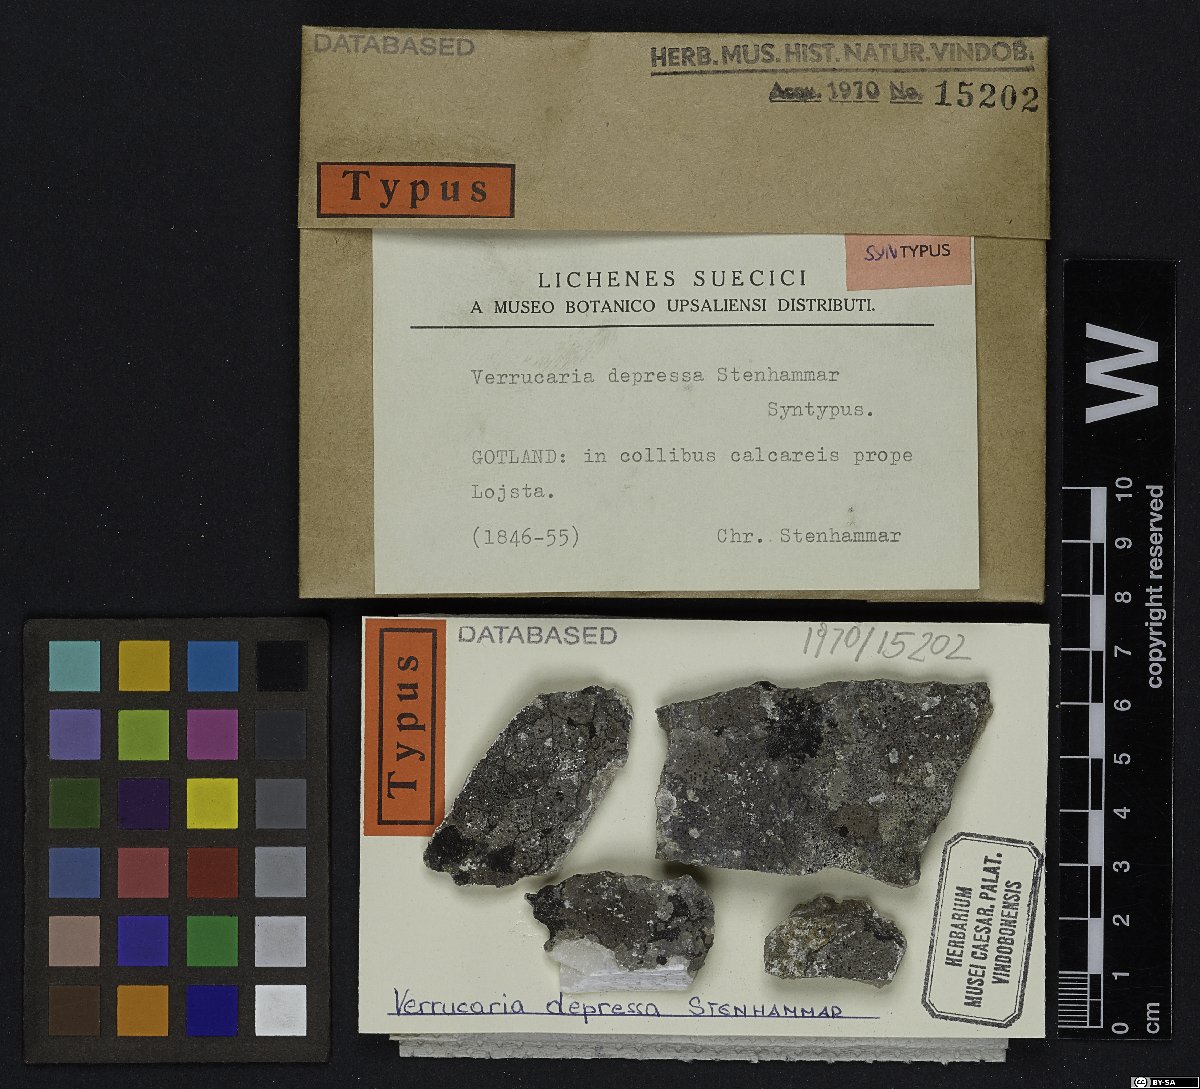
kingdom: Fungi
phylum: Ascomycota
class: Eurotiomycetes
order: Verrucariales
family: Verrucariaceae
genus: Verrucaria
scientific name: Verrucaria obscura
